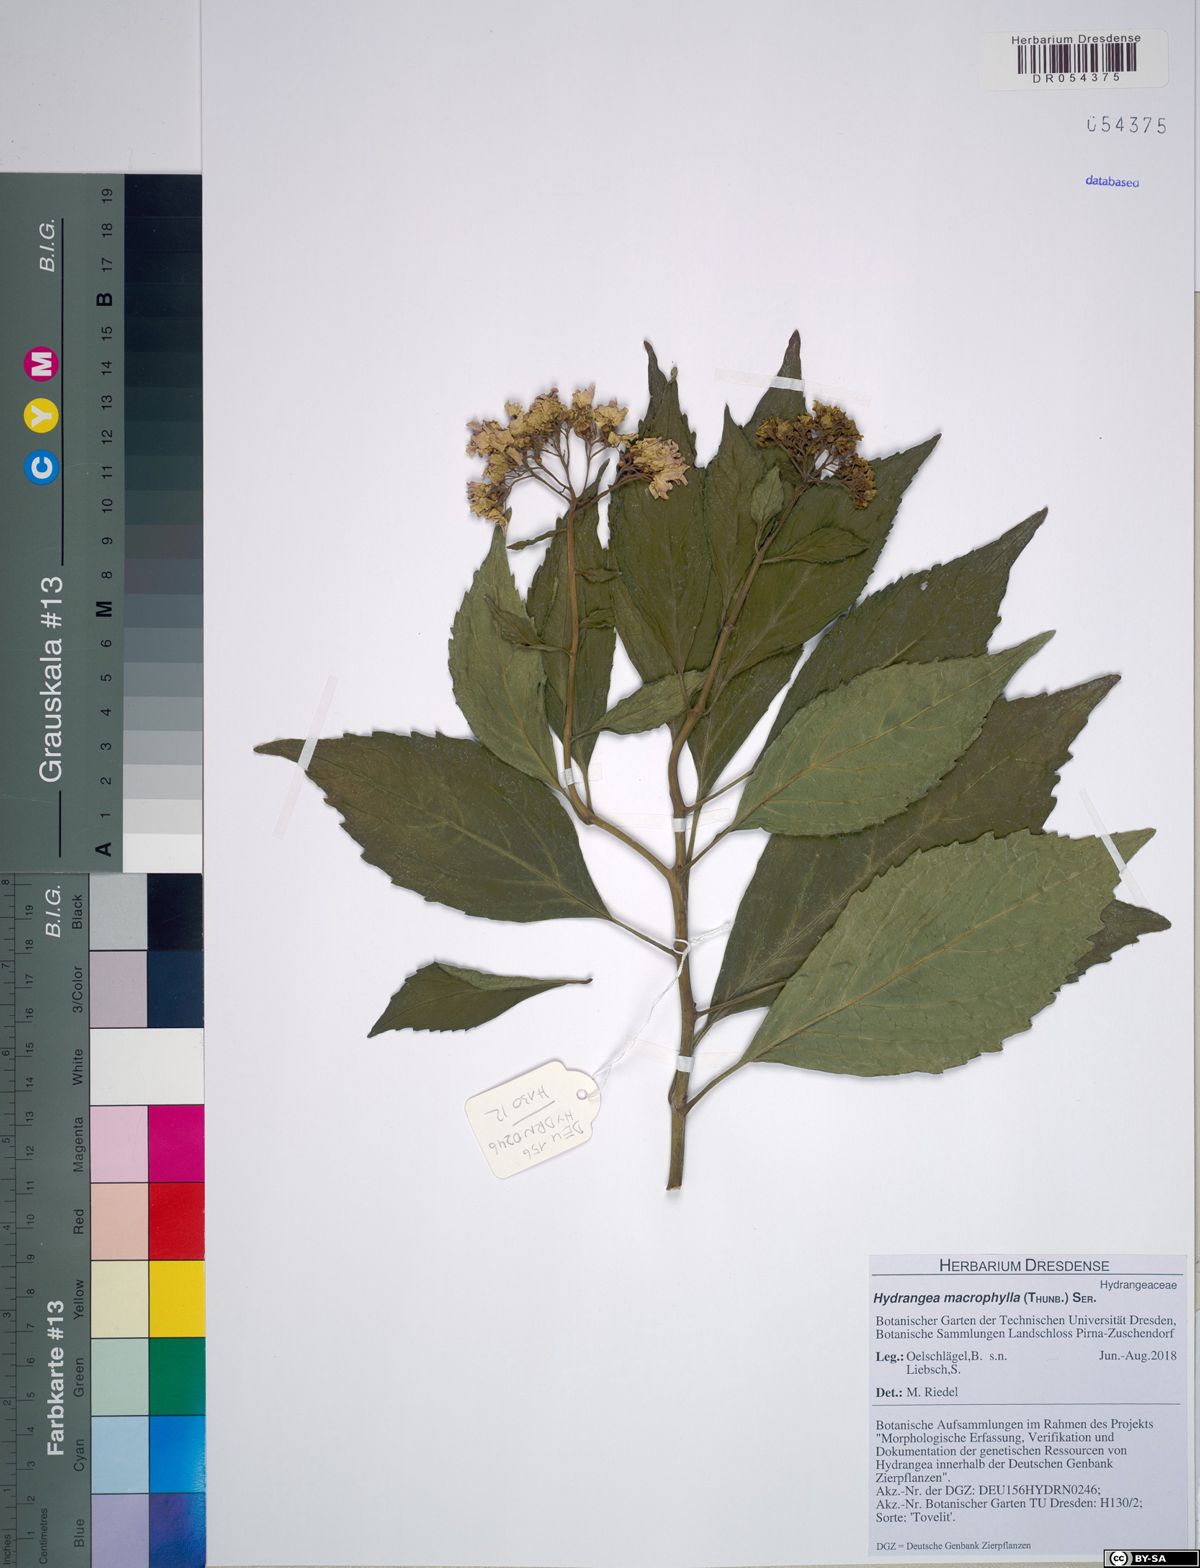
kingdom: Plantae
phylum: Tracheophyta
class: Magnoliopsida
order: Cornales
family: Hydrangeaceae
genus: Hydrangea
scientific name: Hydrangea macrophylla
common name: Hydrangea
